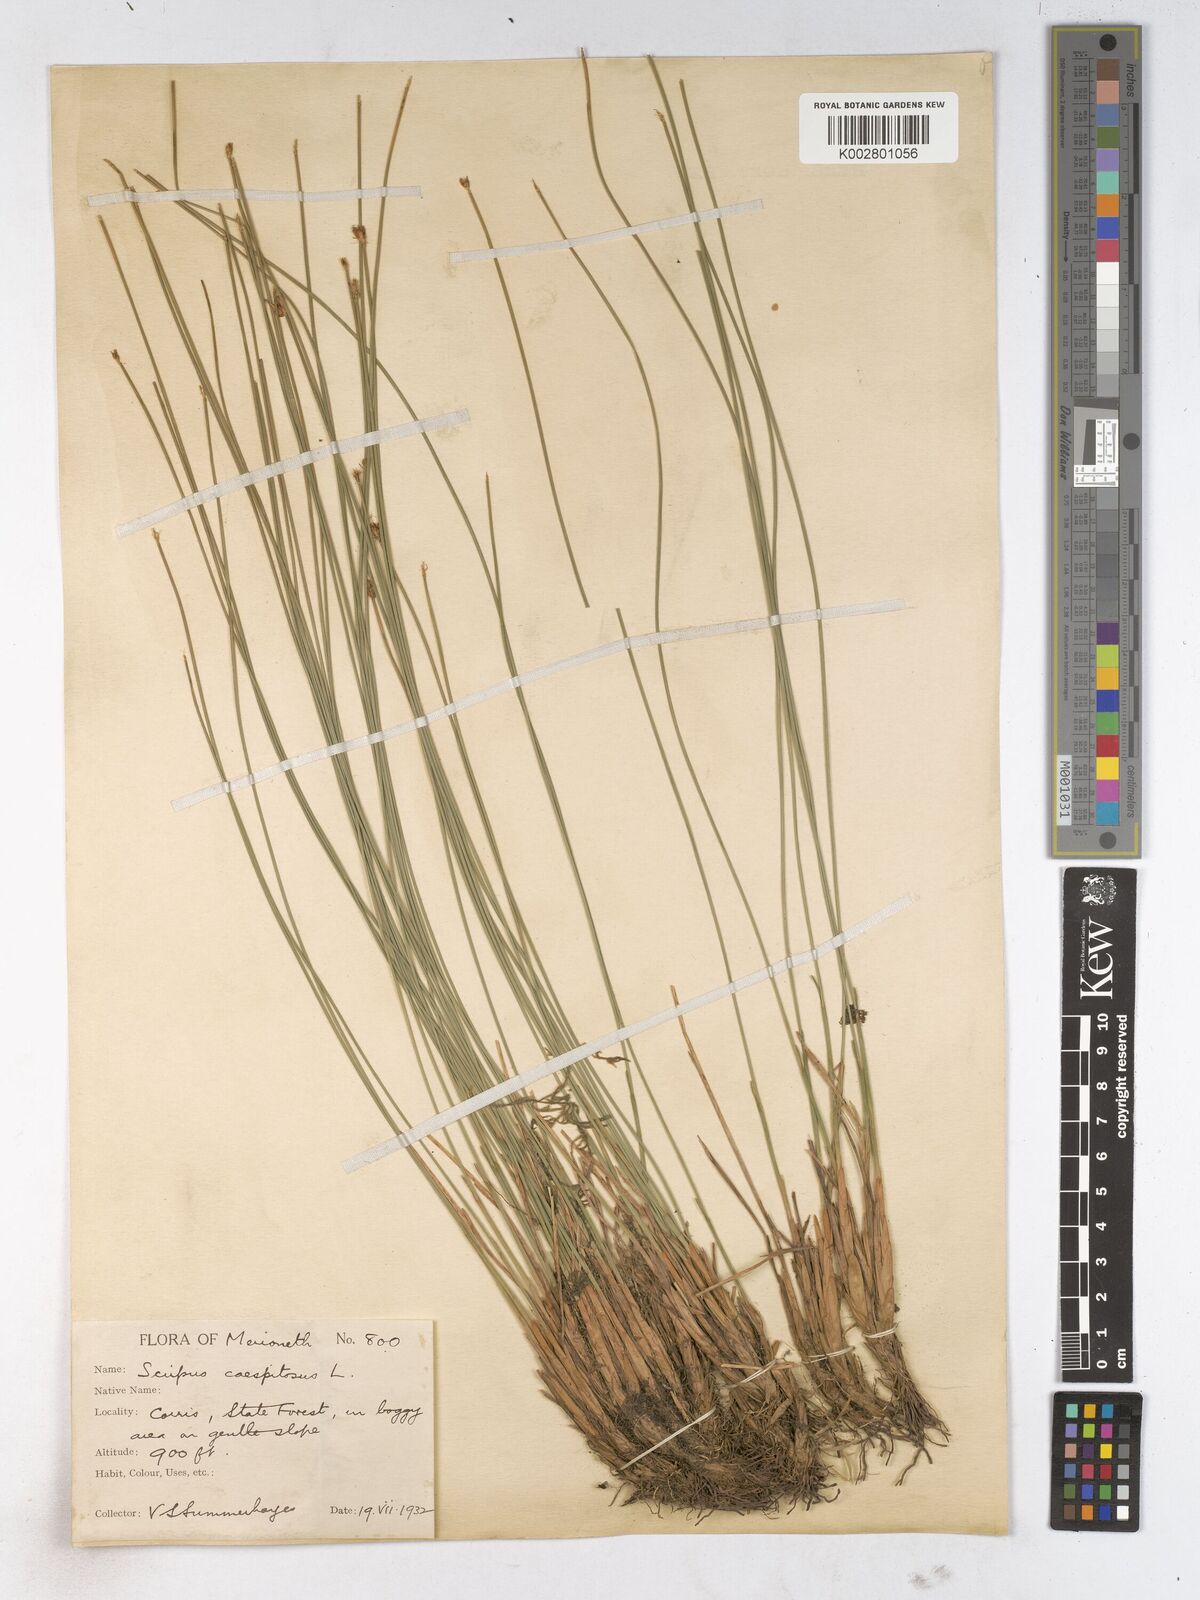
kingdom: Plantae
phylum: Tracheophyta
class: Liliopsida
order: Poales
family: Cyperaceae
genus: Trichophorum
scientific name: Trichophorum cespitosum
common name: Cespitose bulrush
